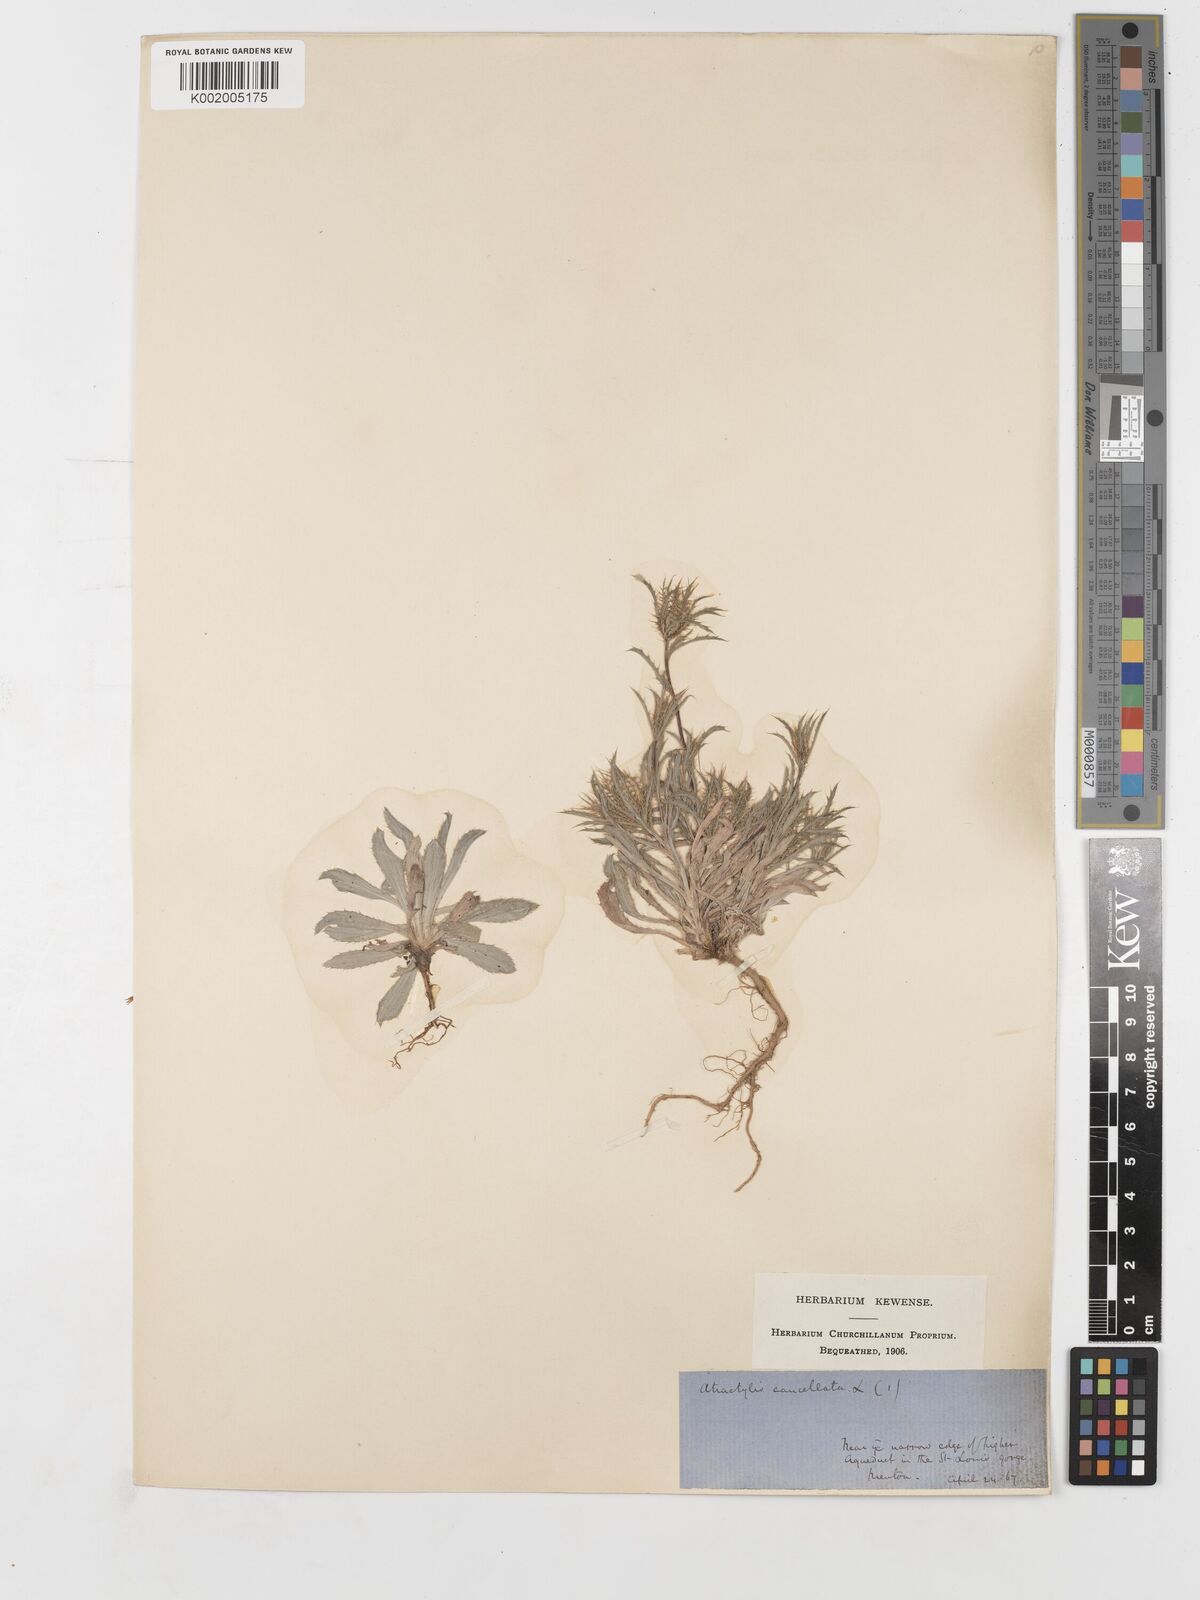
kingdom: Plantae
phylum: Tracheophyta
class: Magnoliopsida
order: Asterales
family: Asteraceae
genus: Atractylis
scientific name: Atractylis cancellata
